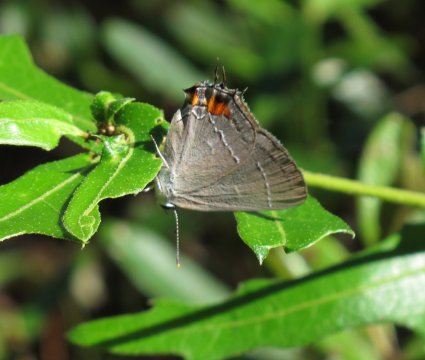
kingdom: Animalia
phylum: Arthropoda
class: Insecta
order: Lepidoptera
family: Lycaenidae
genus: Strymon
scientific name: Strymon melinus
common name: Gray Hairstreak
